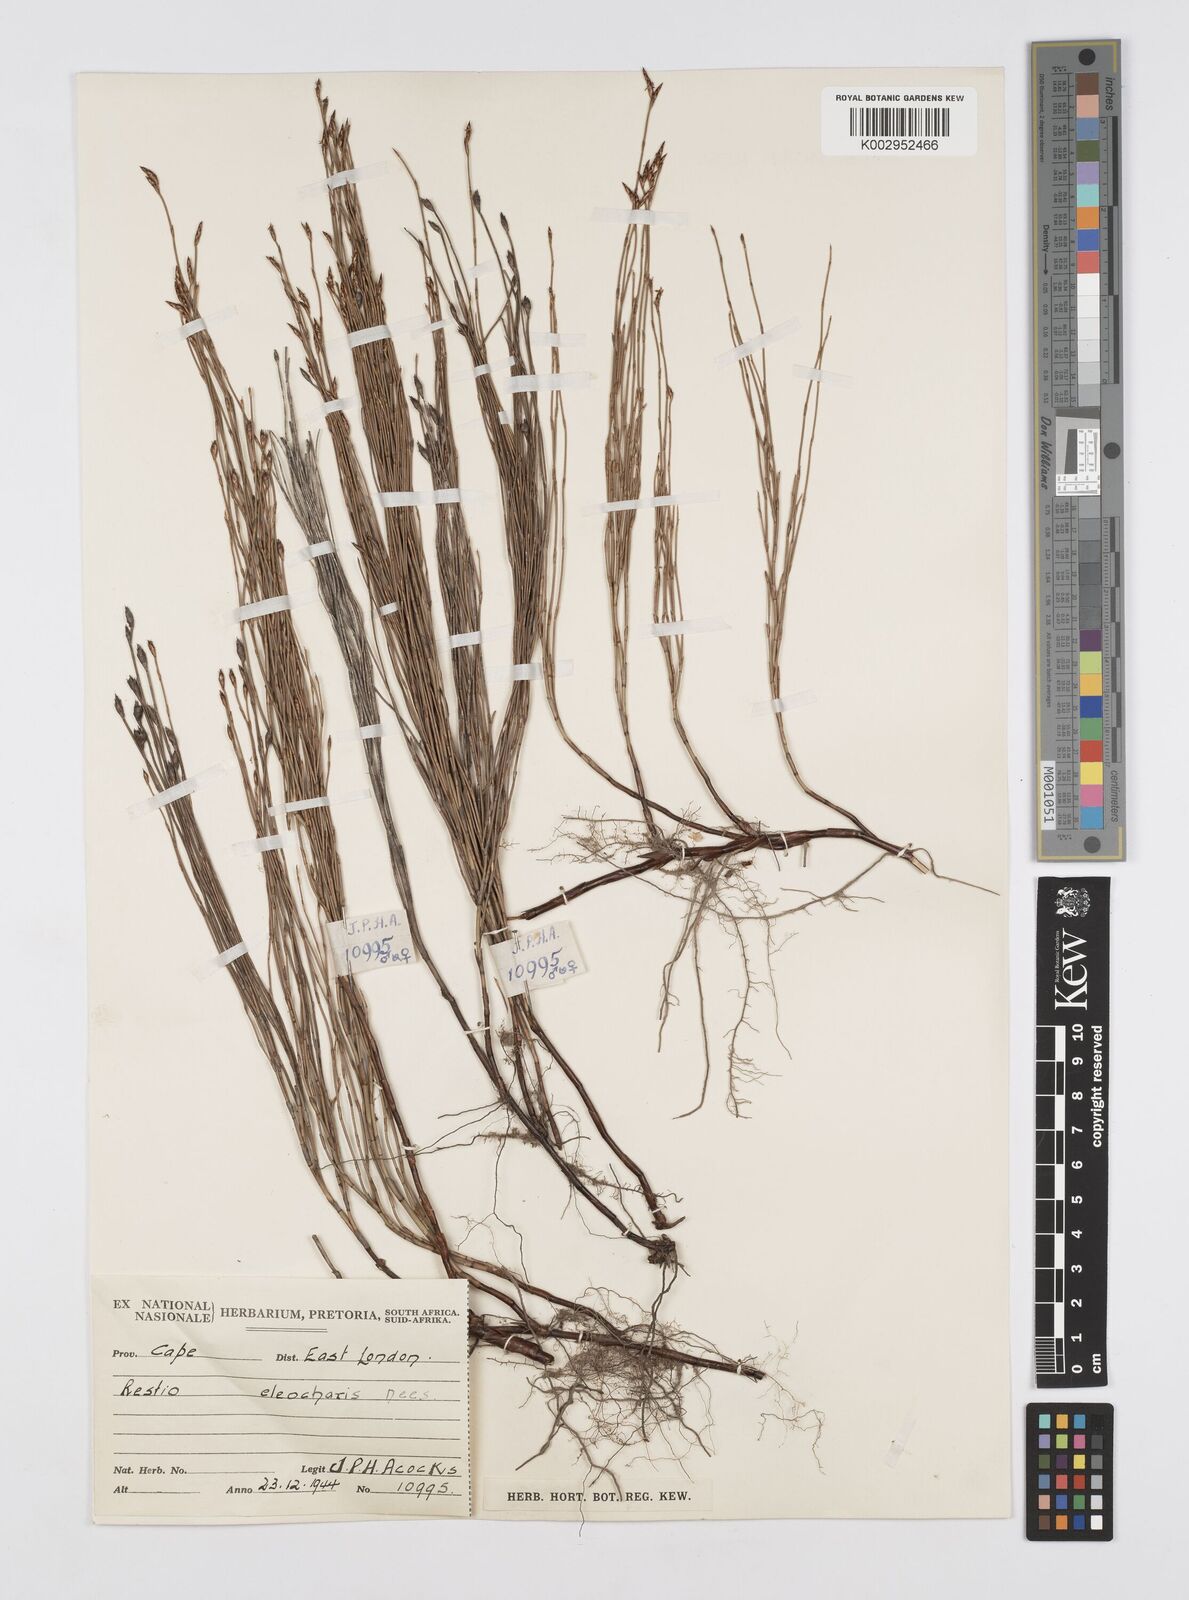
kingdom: Plantae
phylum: Tracheophyta
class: Liliopsida
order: Poales
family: Restionaceae
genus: Restio
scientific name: Restio eleocharis
